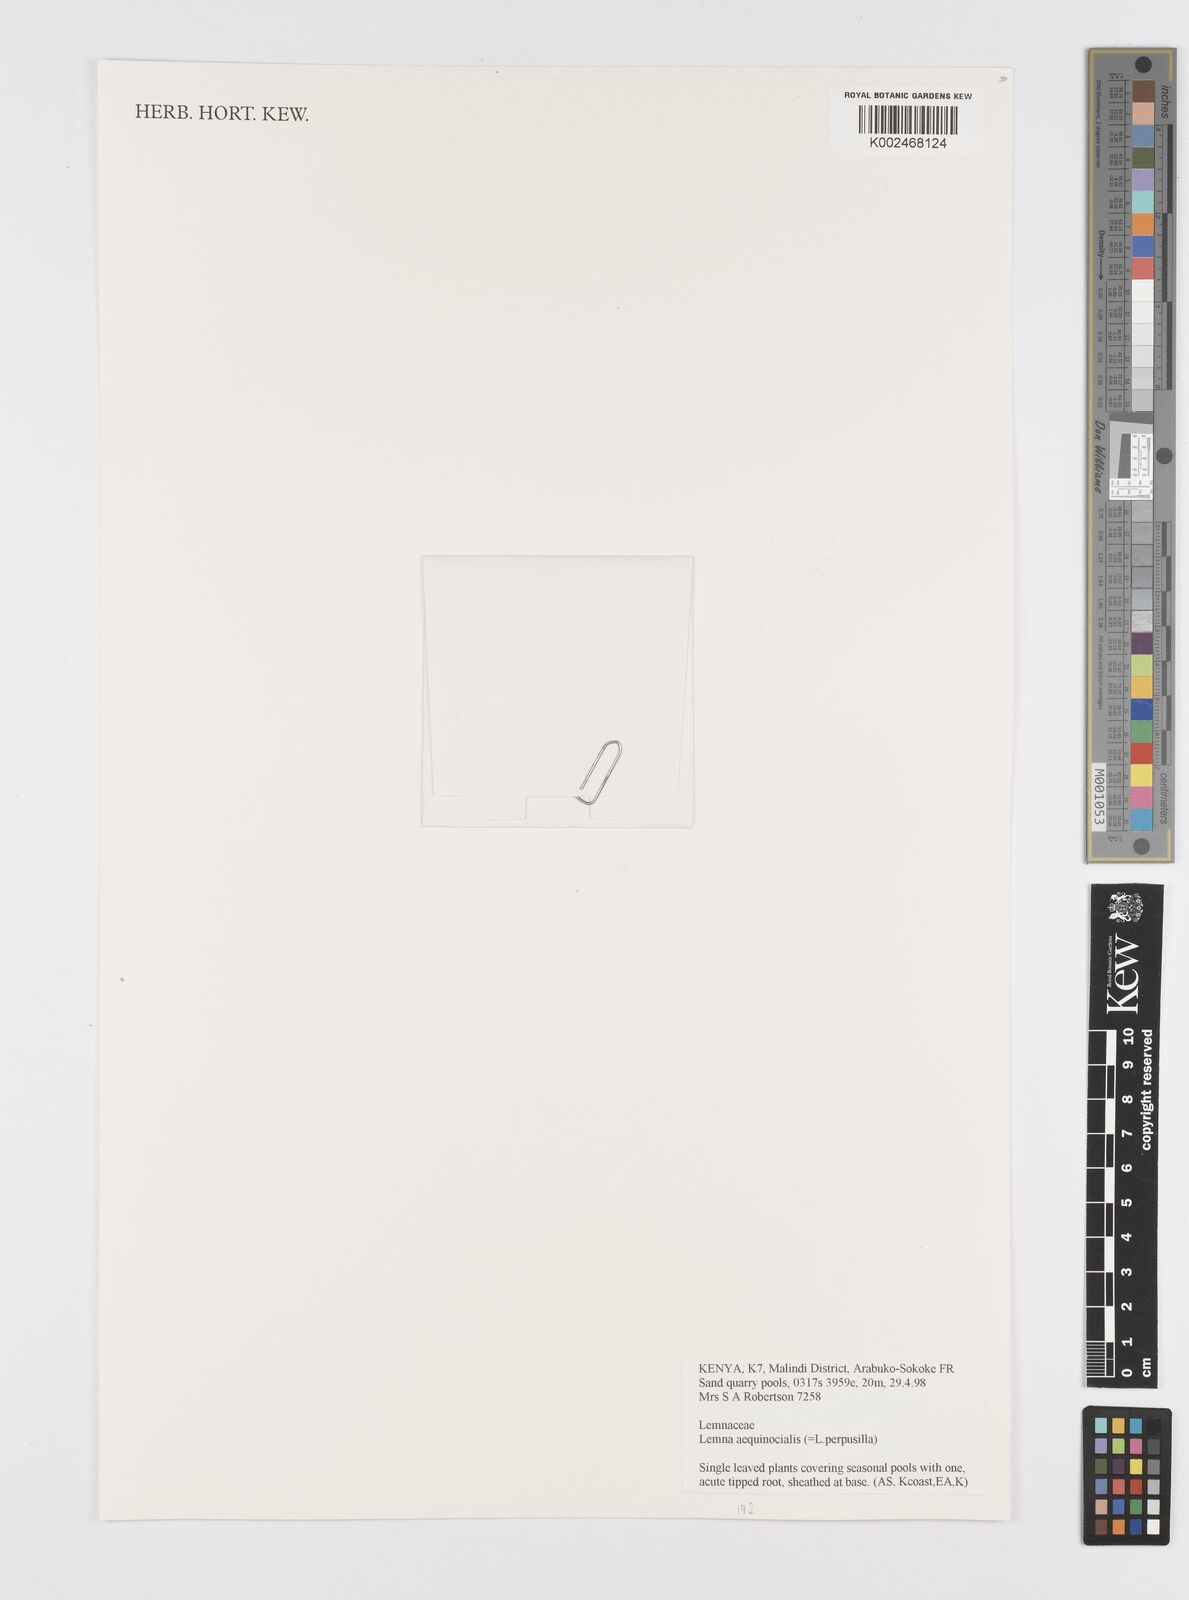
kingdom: Plantae
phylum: Tracheophyta
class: Liliopsida
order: Alismatales
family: Araceae
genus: Lemna
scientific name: Lemna aequinoctialis
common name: Duckweed
